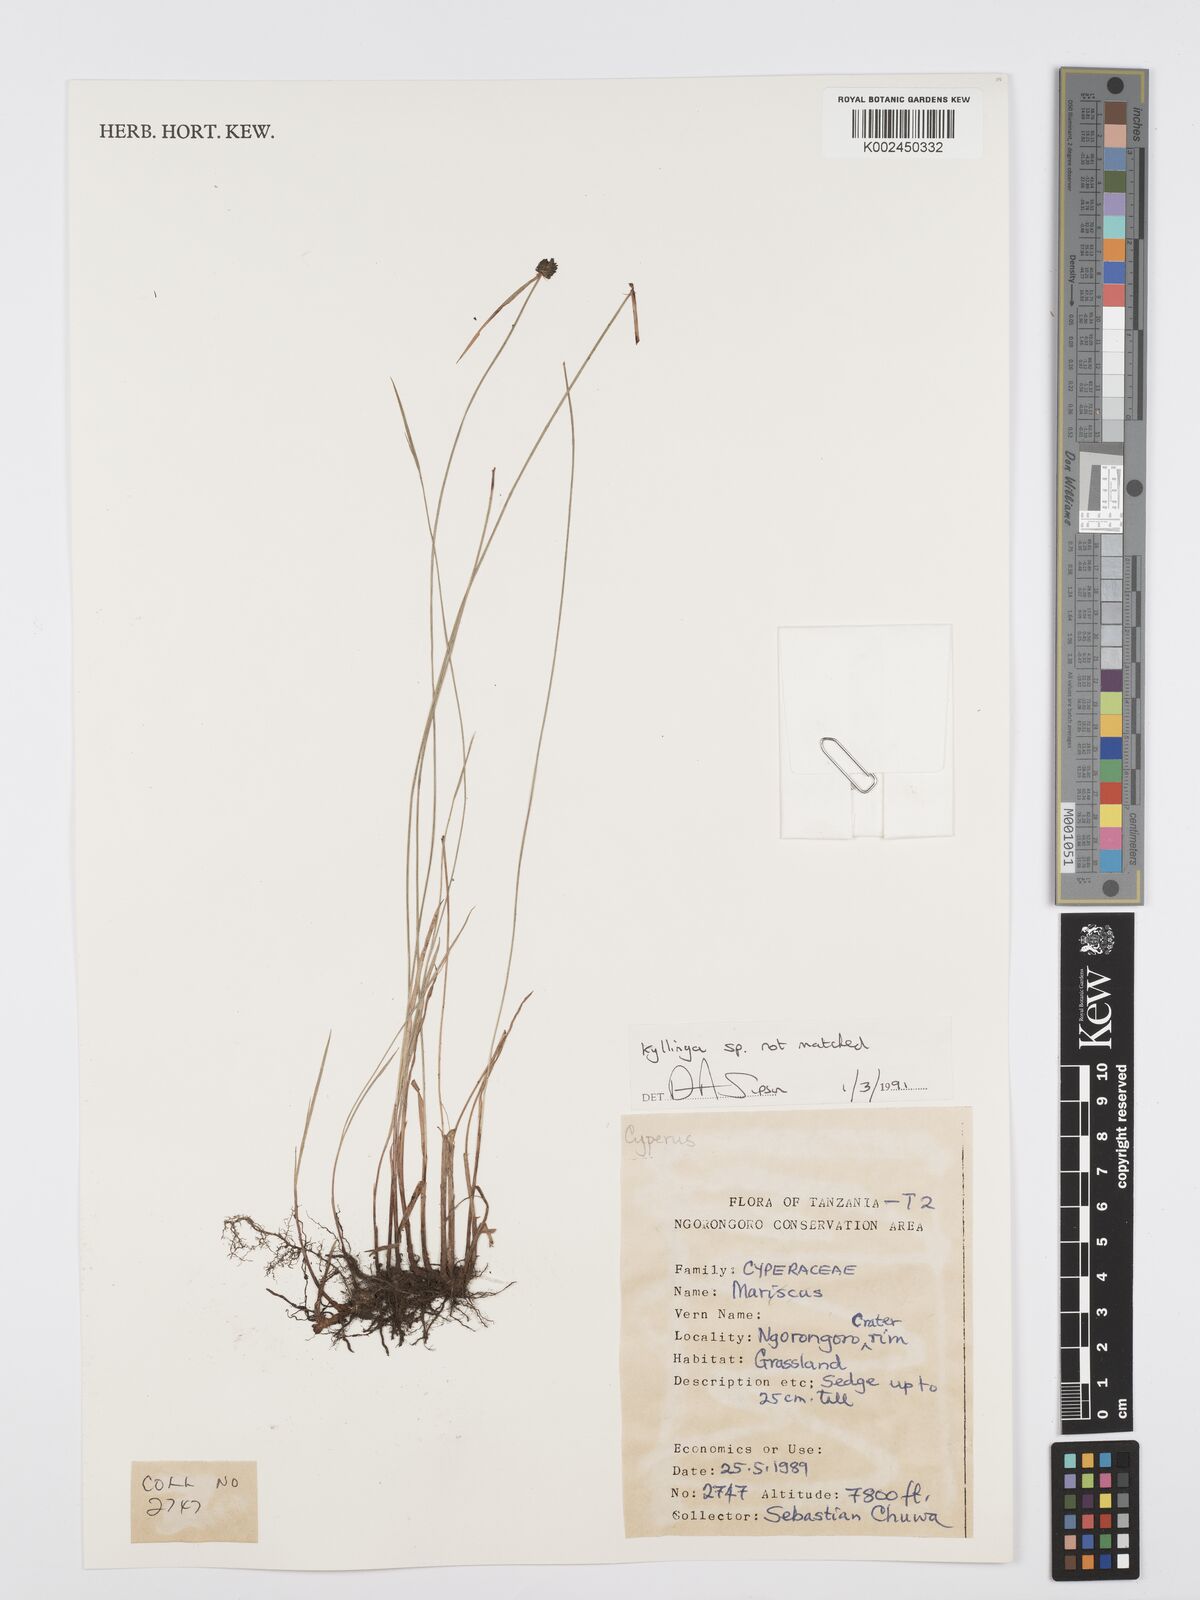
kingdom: Plantae
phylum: Tracheophyta
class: Liliopsida
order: Poales
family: Cyperaceae
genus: Cyperus
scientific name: Cyperus
